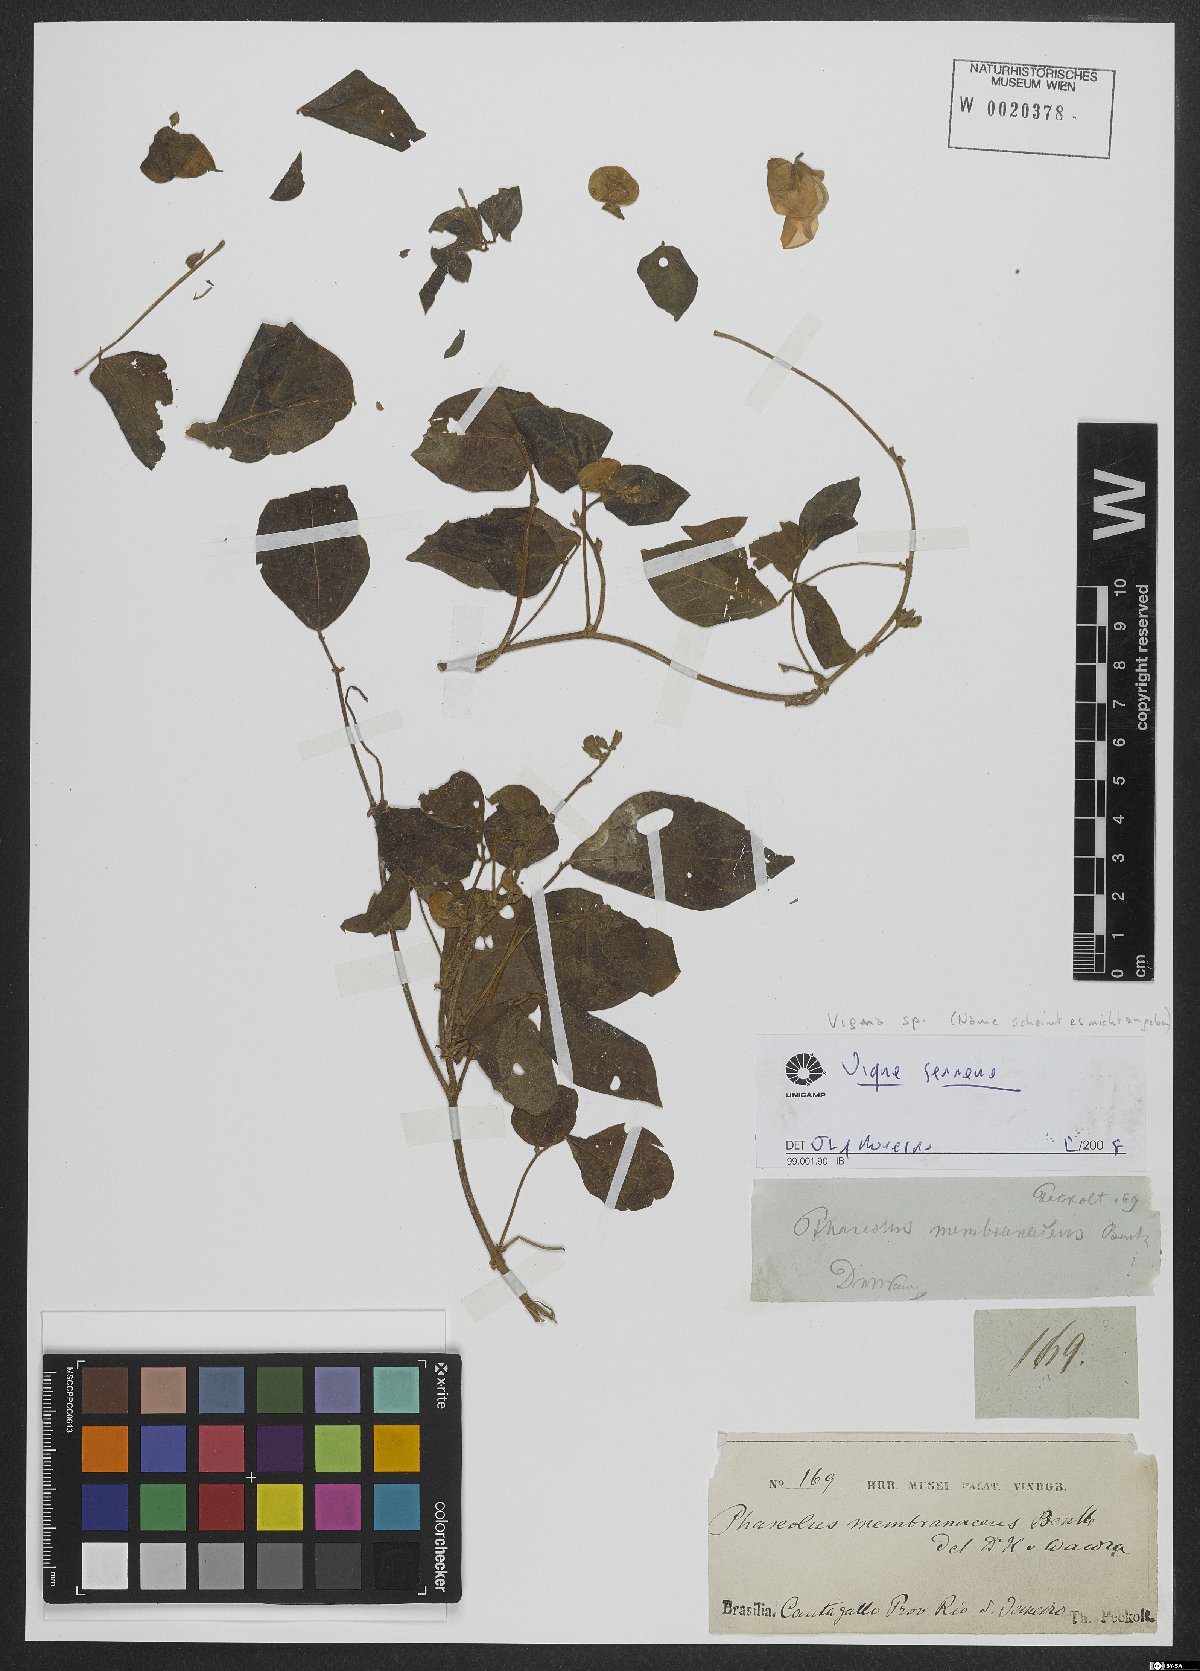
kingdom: Plantae
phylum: Tracheophyta
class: Magnoliopsida
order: Fabales
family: Fabaceae
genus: Vigna
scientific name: Vigna
